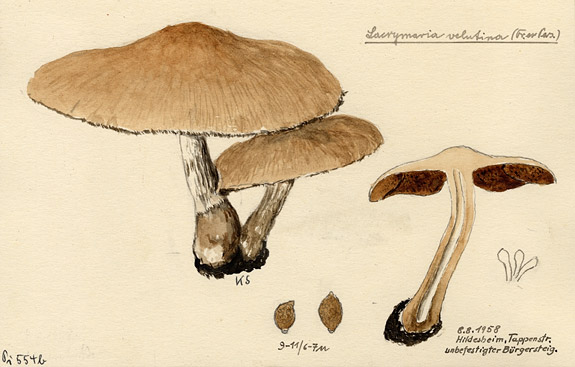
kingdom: Fungi
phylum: Basidiomycota
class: Agaricomycetes
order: Agaricales
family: Psathyrellaceae
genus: Lacrymaria
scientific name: Lacrymaria lacrymabunda
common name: Weeping widow
